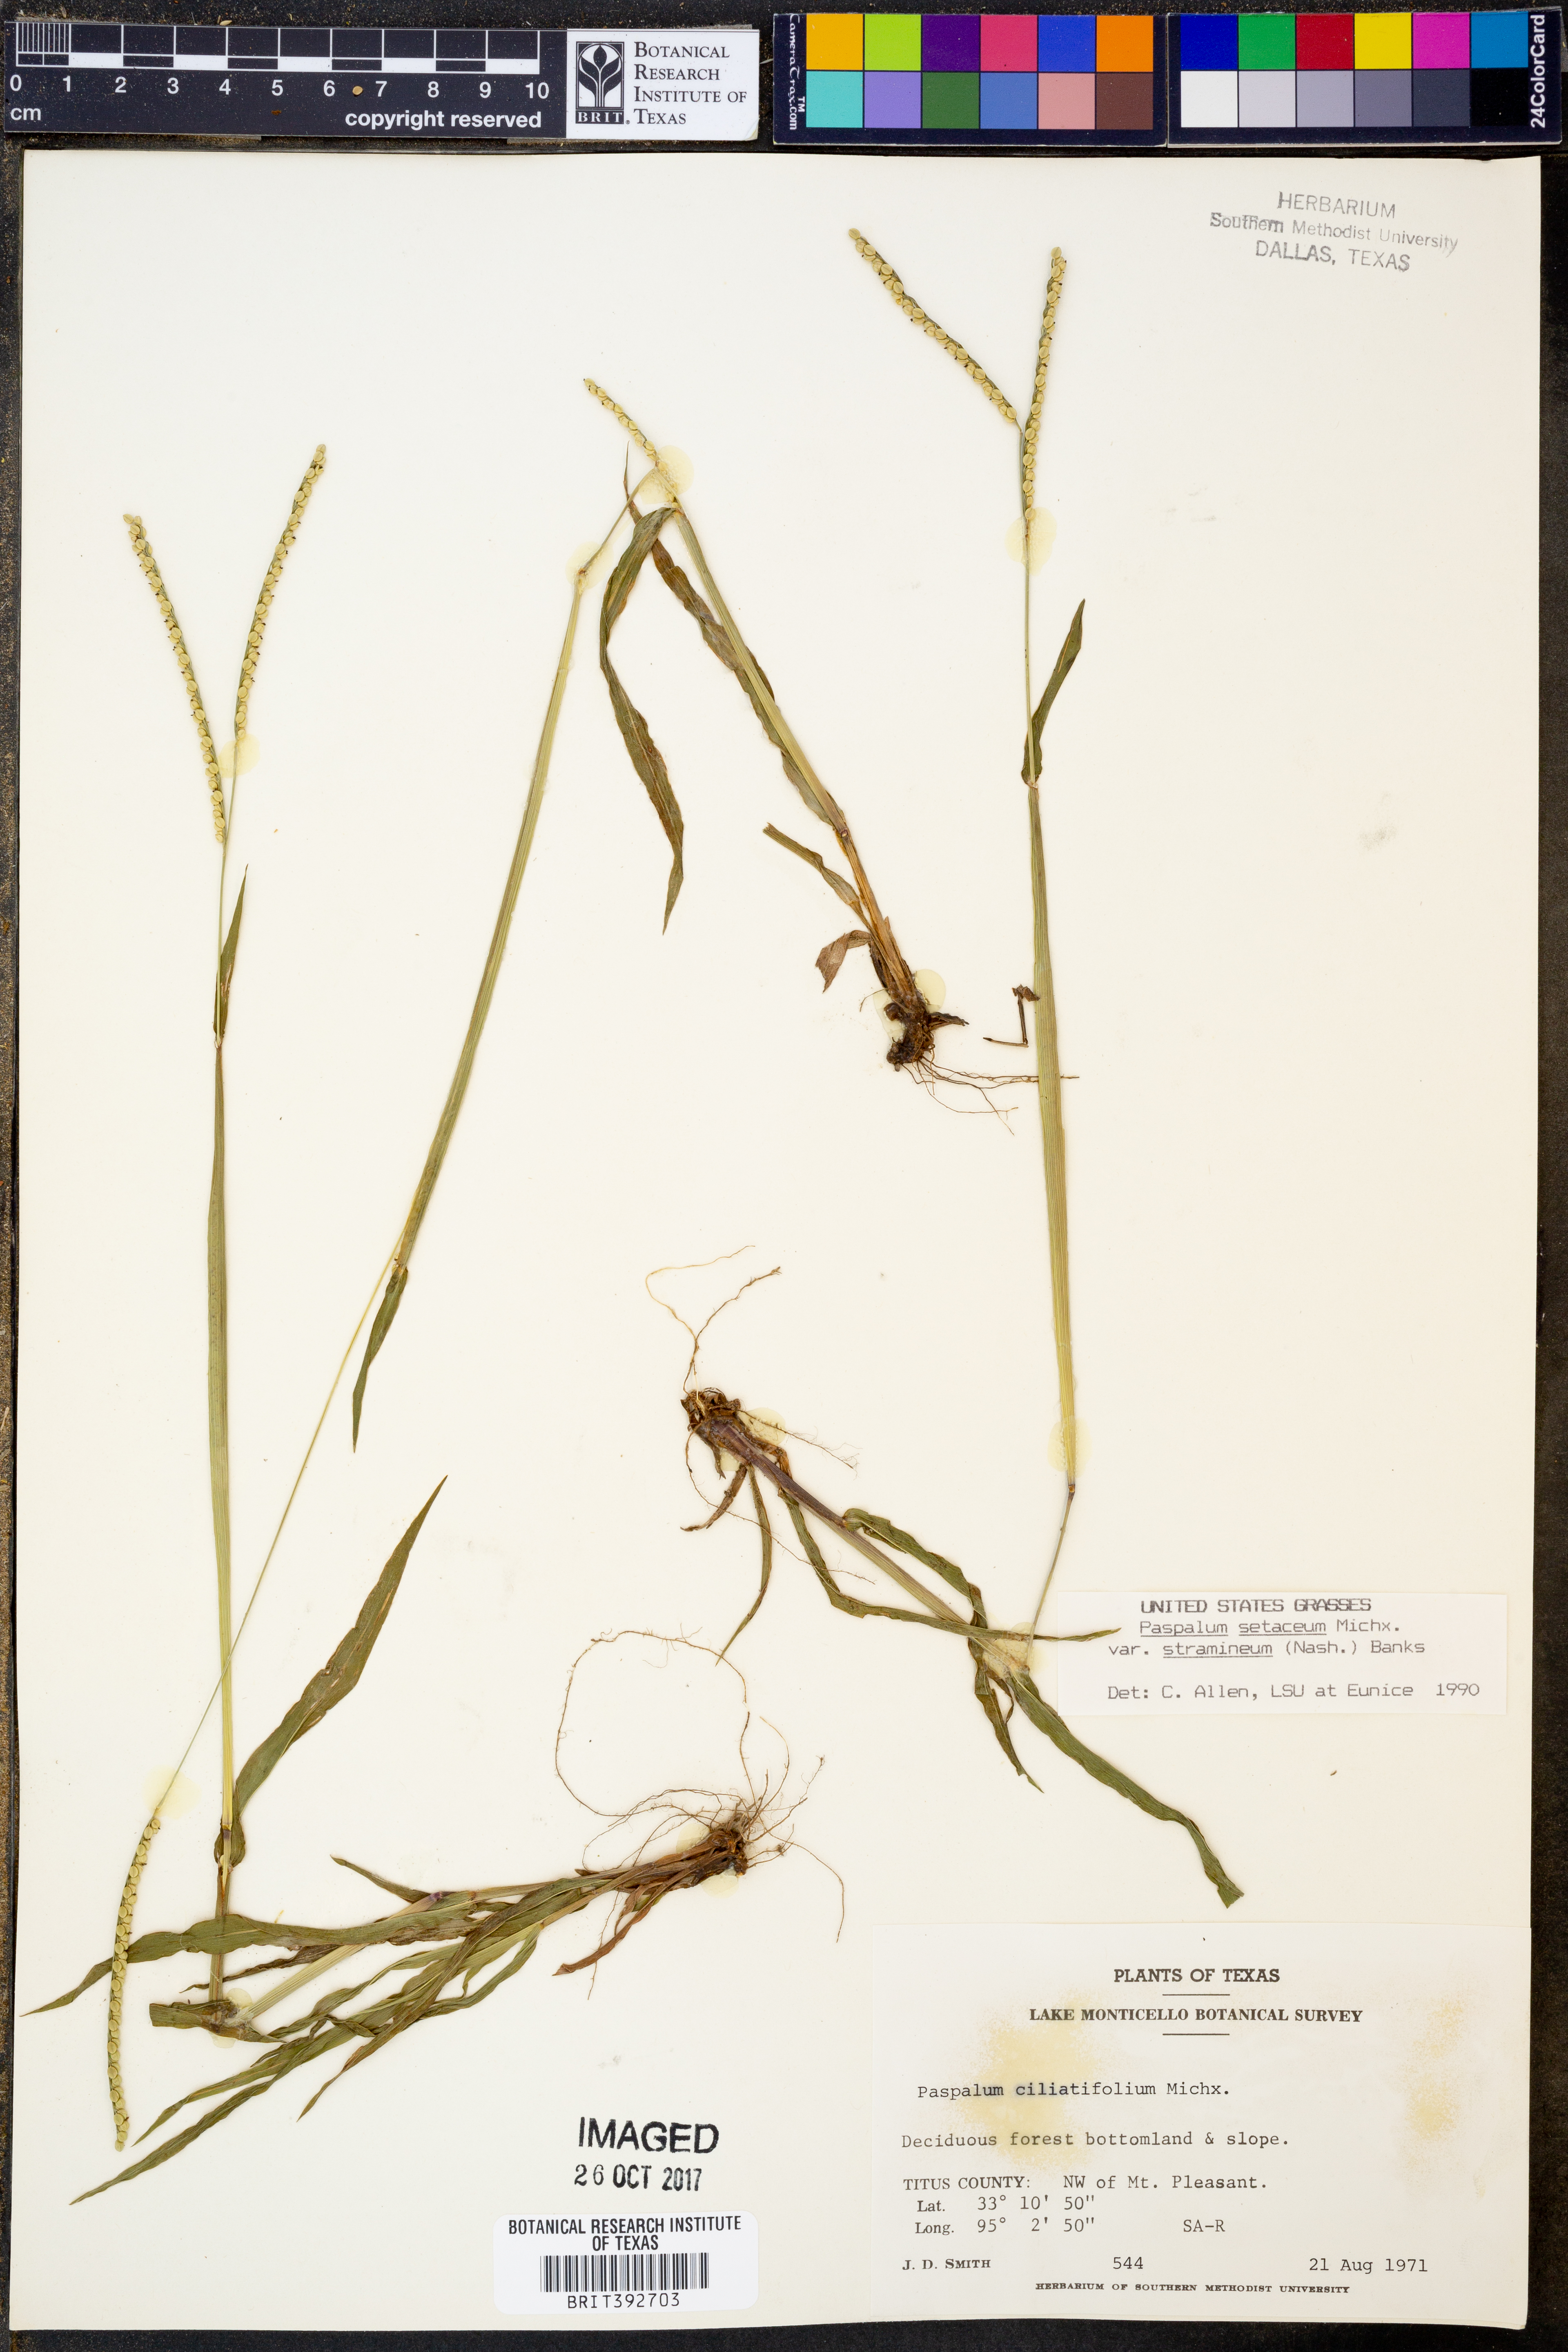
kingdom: Plantae
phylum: Tracheophyta
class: Liliopsida
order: Poales
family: Poaceae
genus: Paspalum
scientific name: Paspalum setaceum
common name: Slender paspalum
